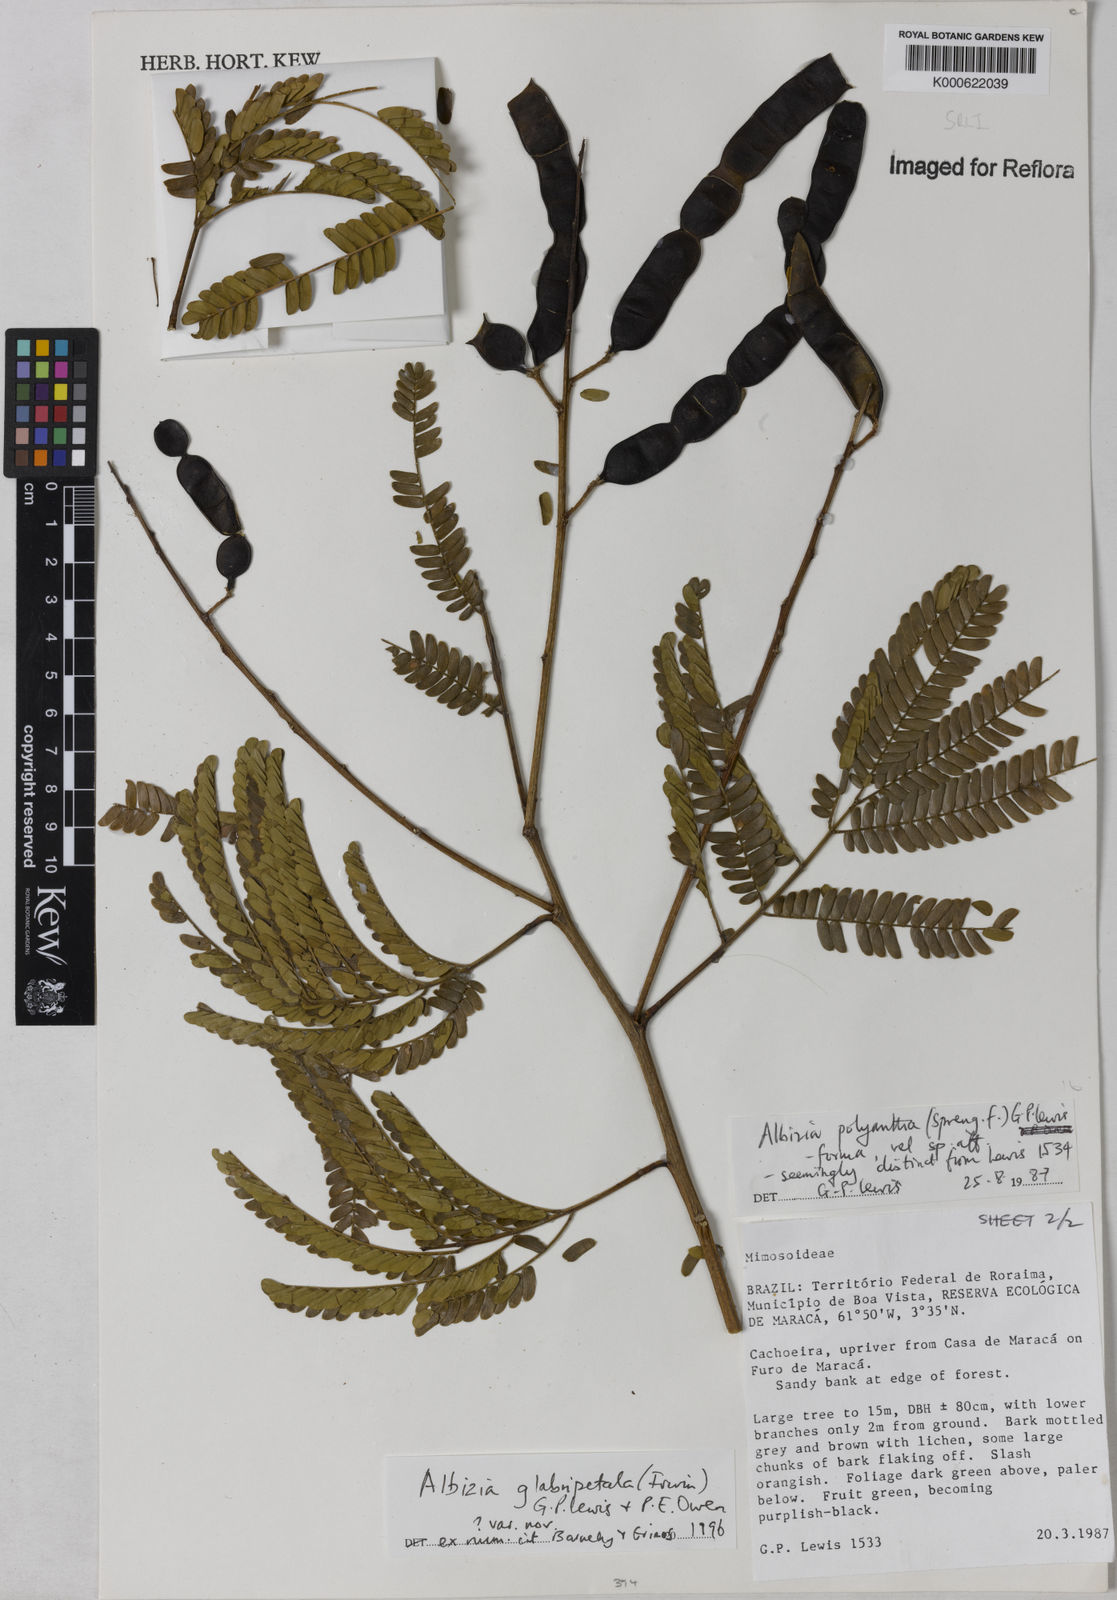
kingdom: Plantae
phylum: Tracheophyta
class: Magnoliopsida
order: Fabales
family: Fabaceae
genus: Albizia
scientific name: Albizia glabripetala
